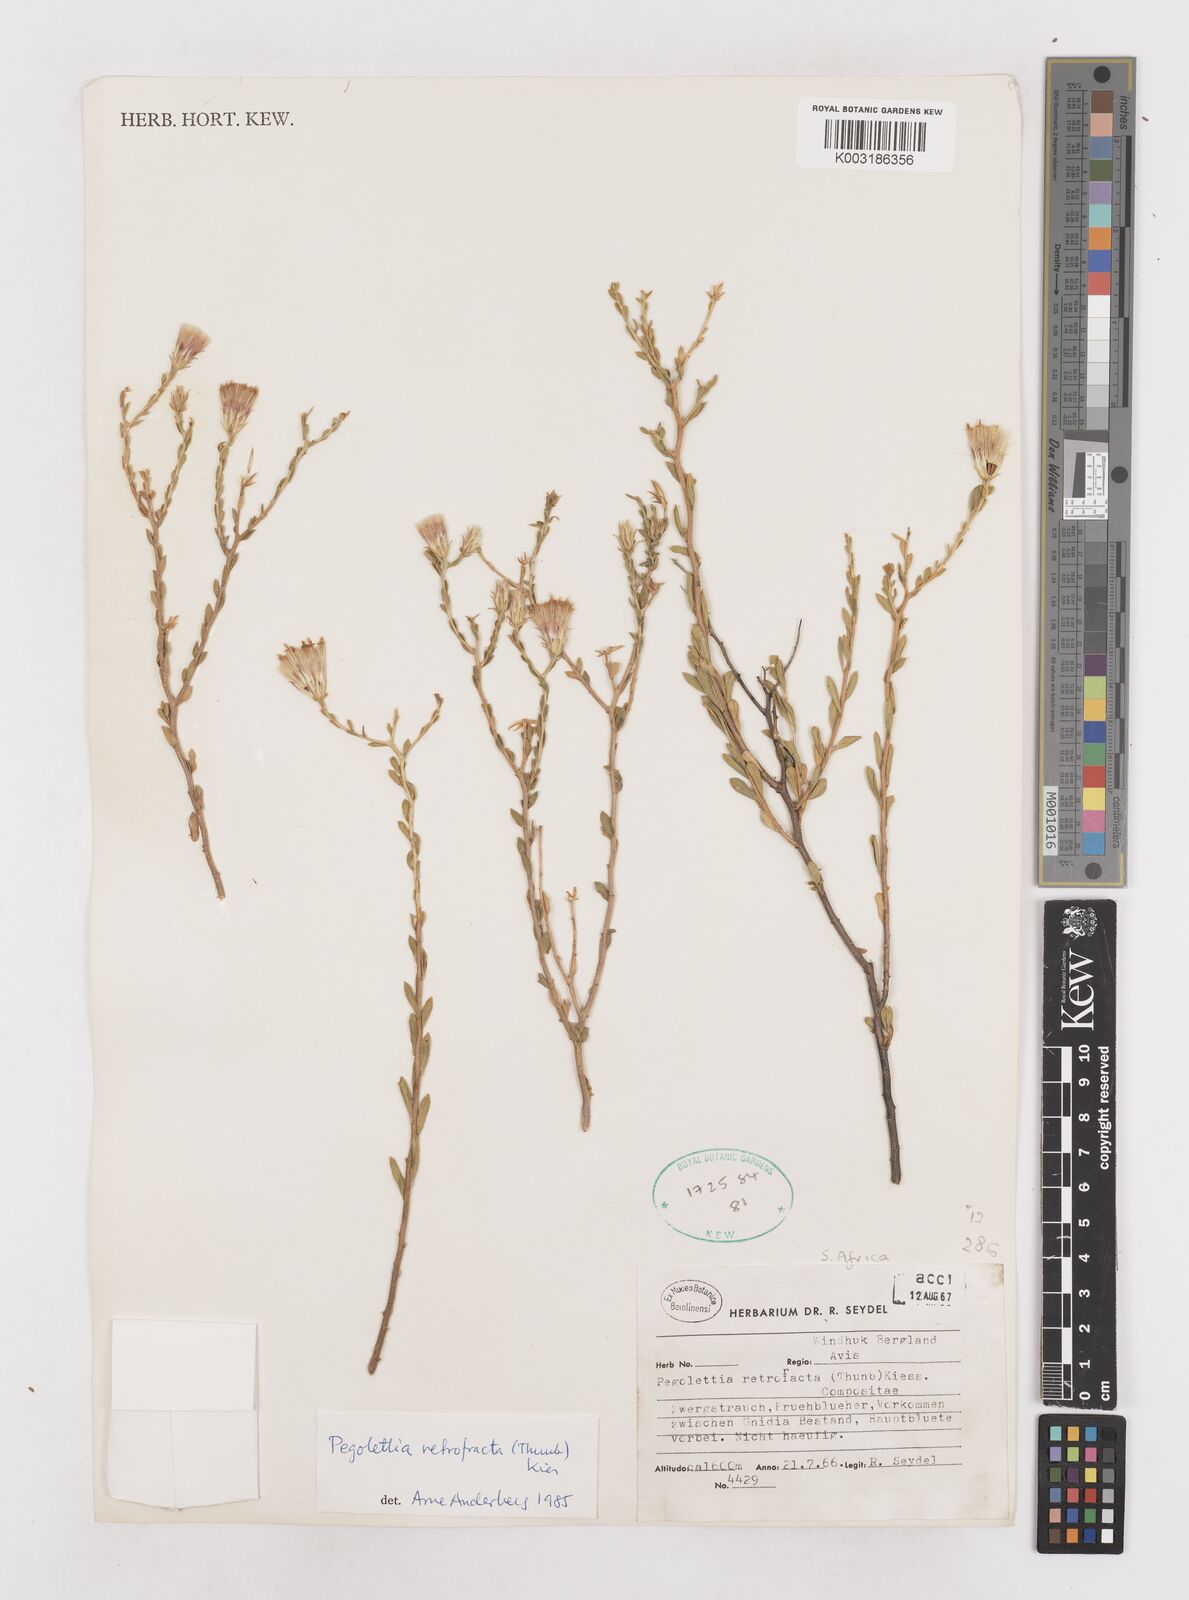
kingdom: Plantae
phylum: Tracheophyta
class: Magnoliopsida
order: Asterales
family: Asteraceae
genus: Pegolettia
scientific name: Pegolettia retrofracta
